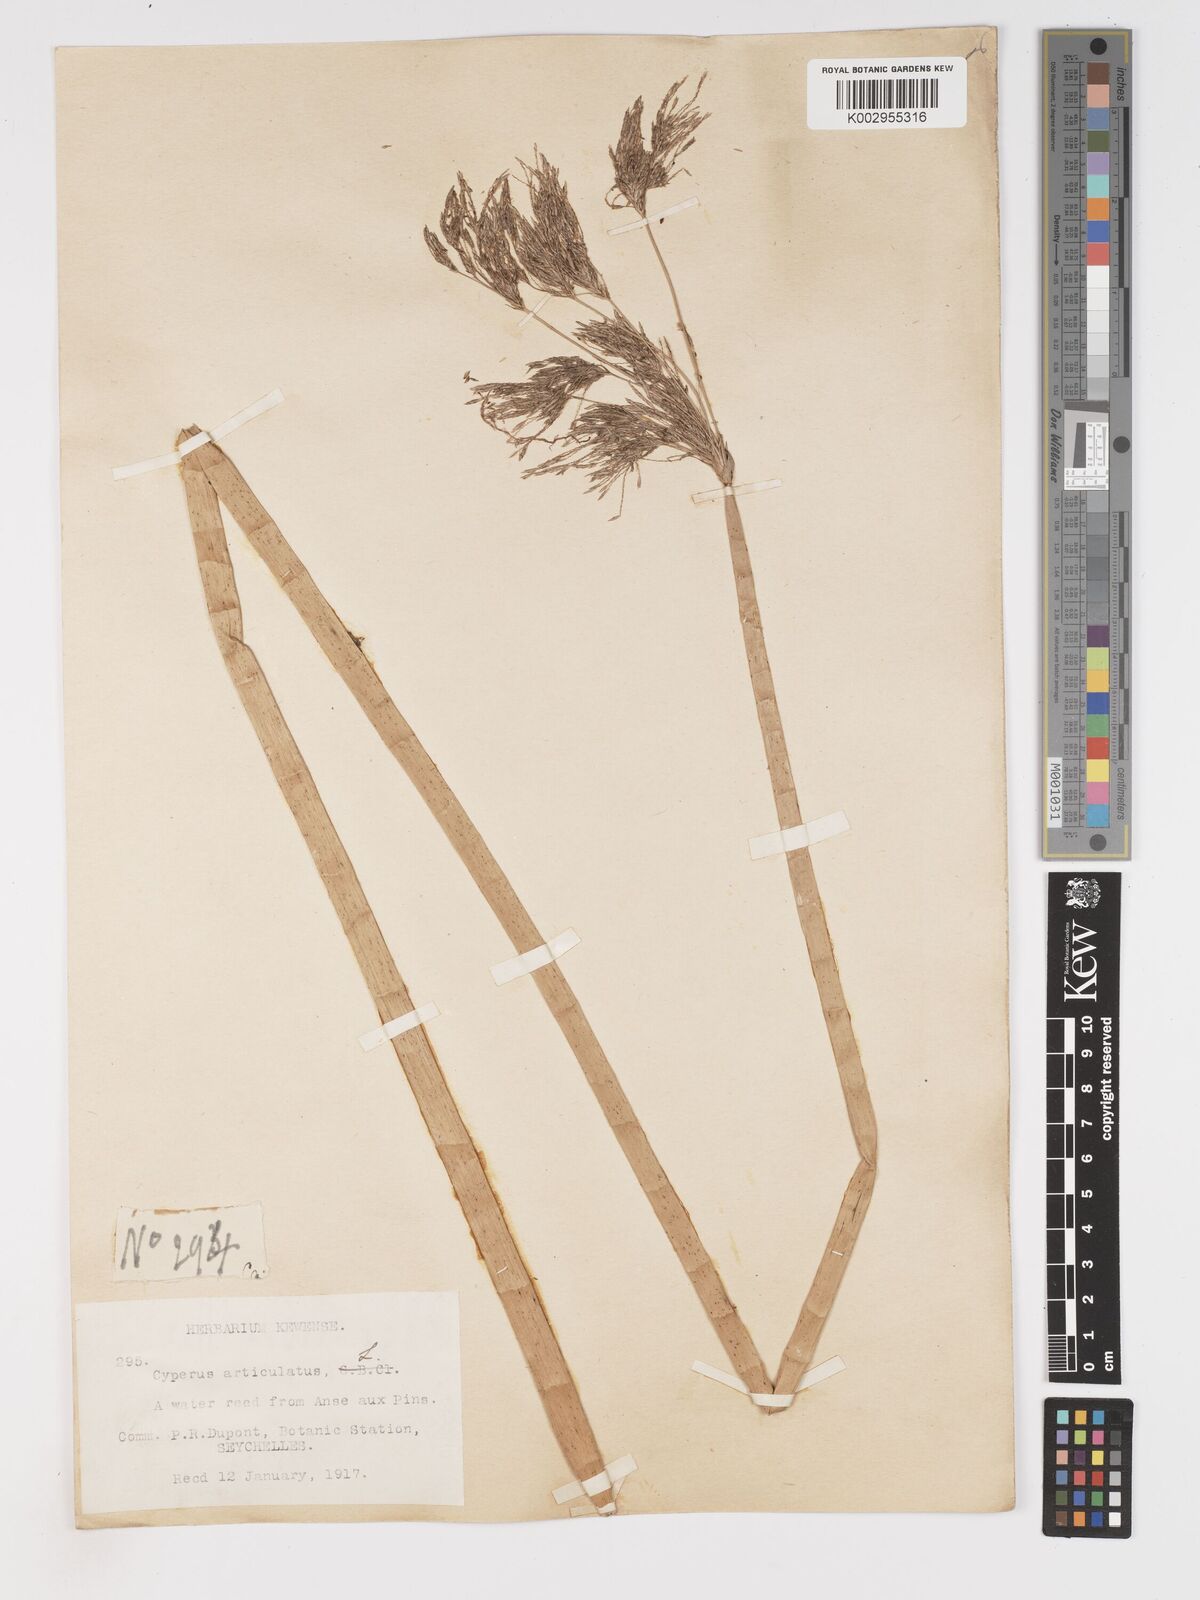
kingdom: Plantae
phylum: Tracheophyta
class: Liliopsida
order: Poales
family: Cyperaceae
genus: Cyperus
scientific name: Cyperus articulatus
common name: Jointed flatsedge
